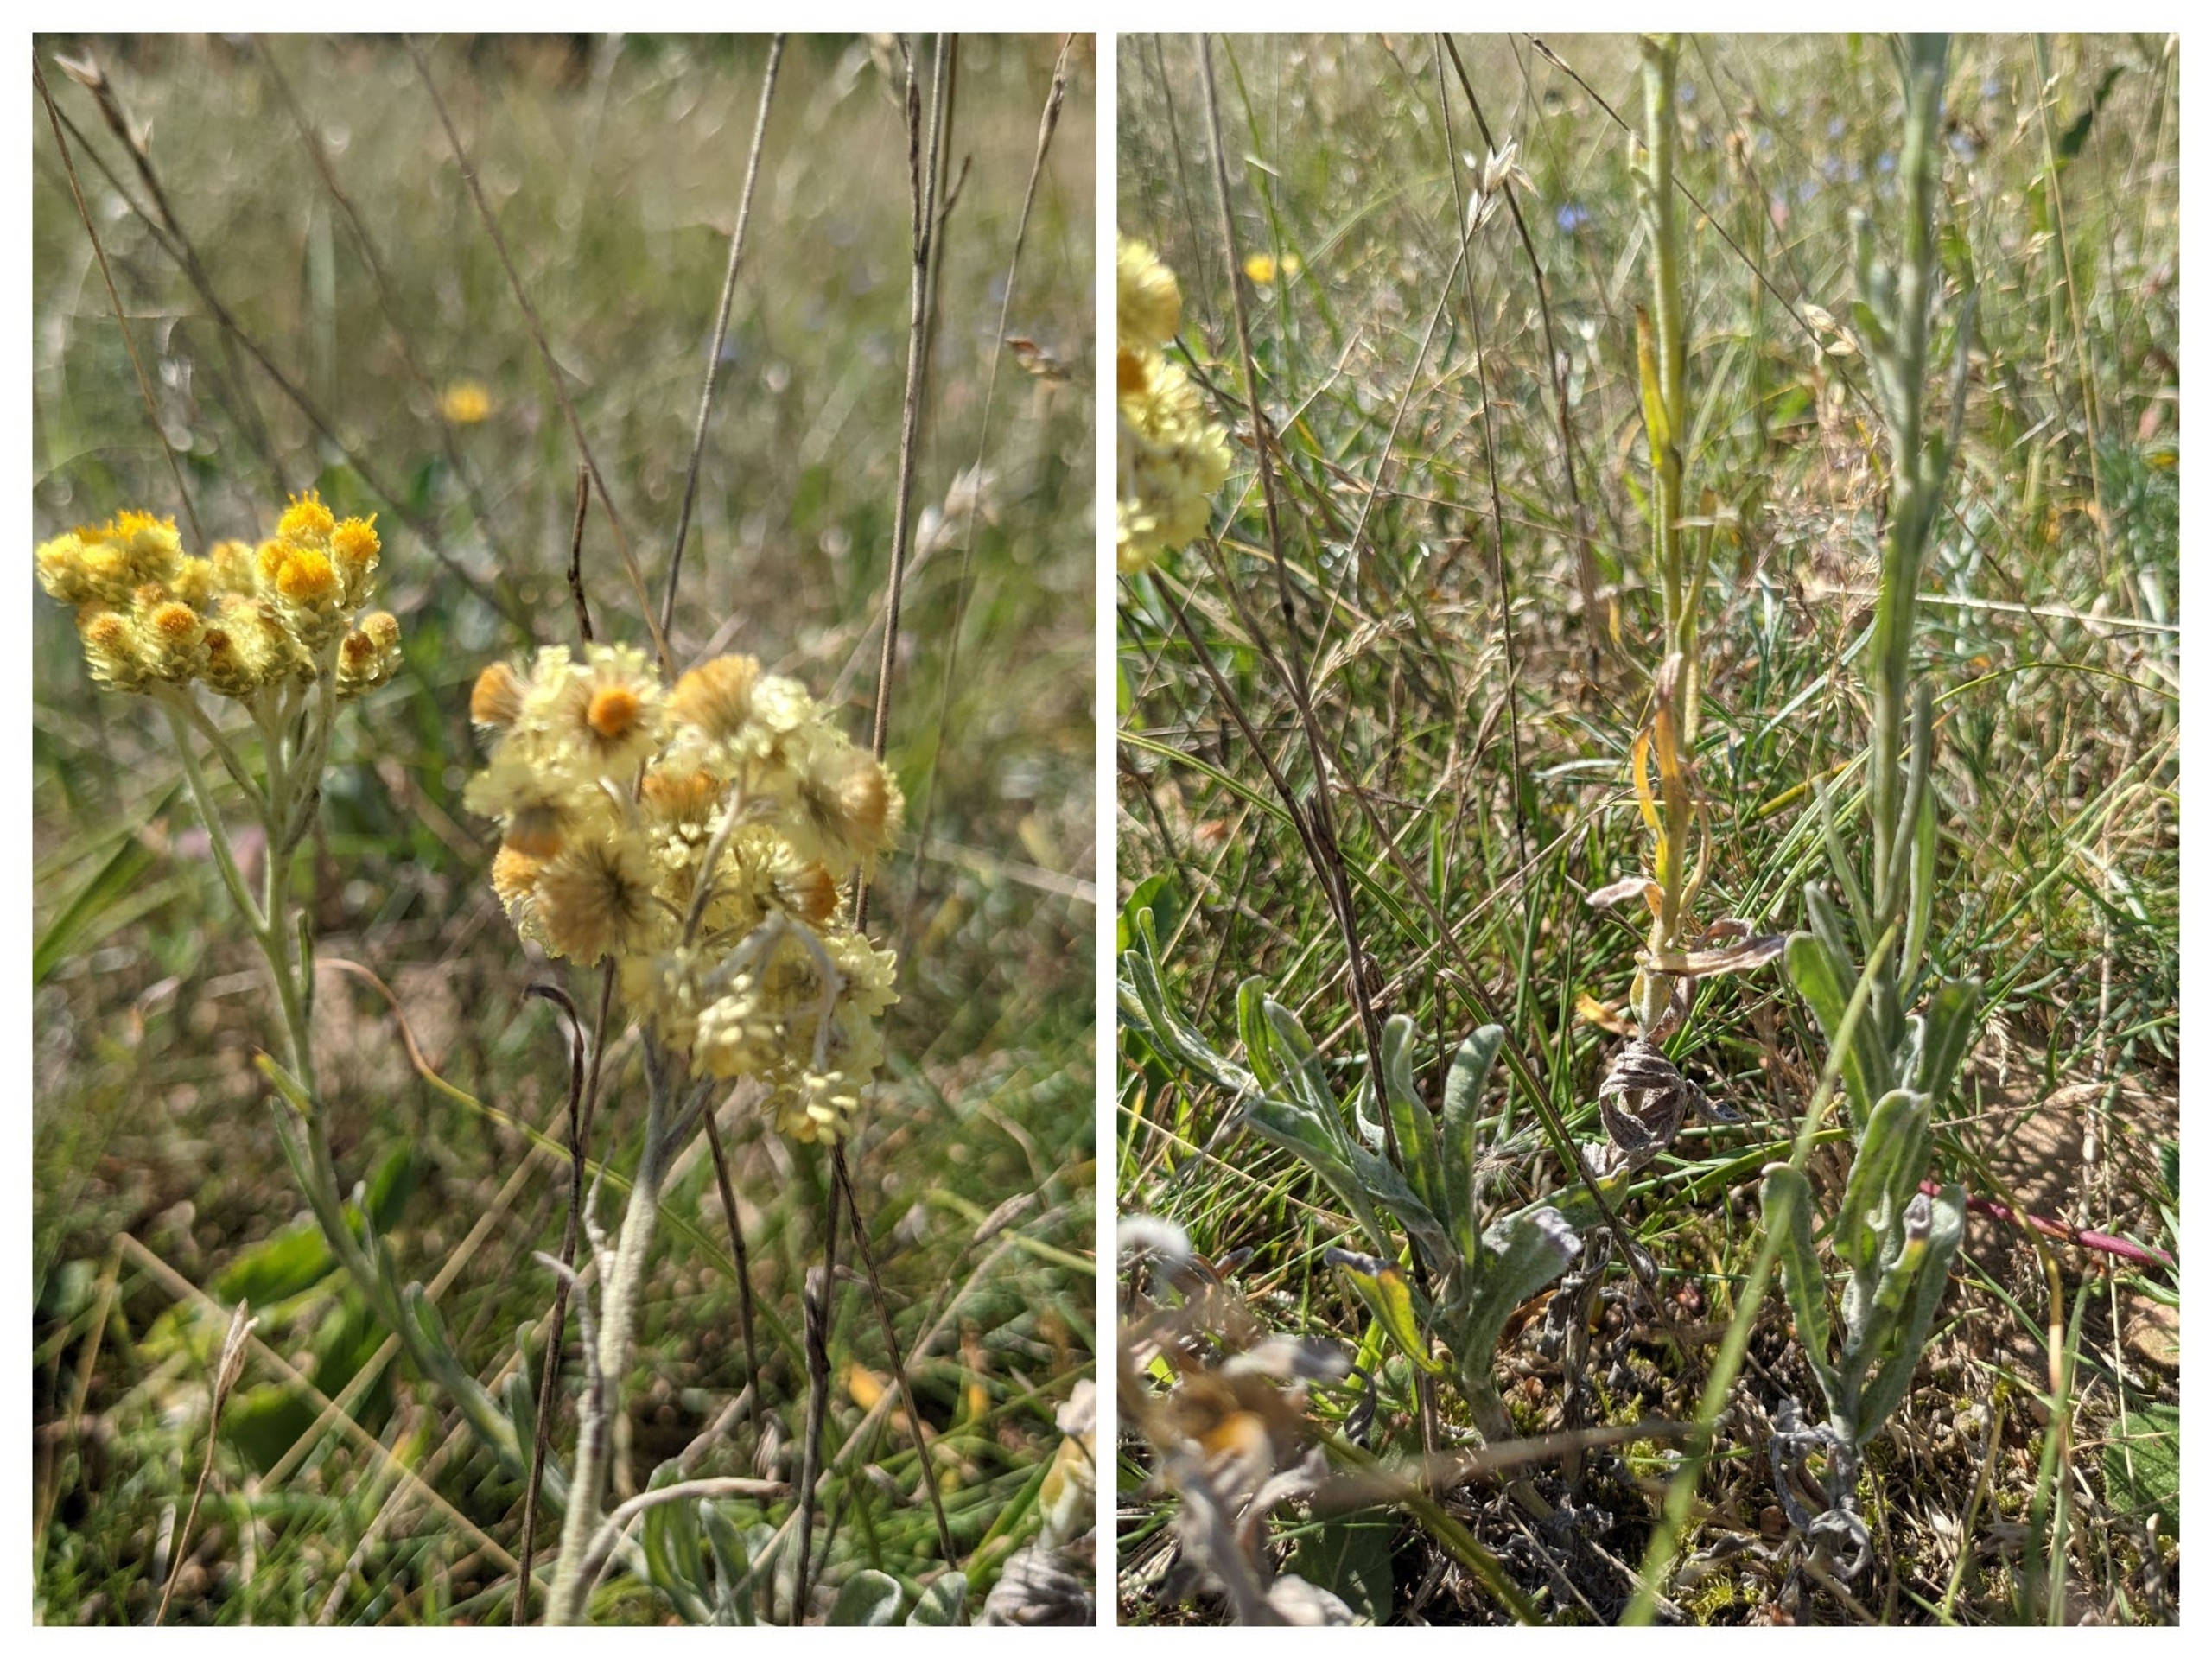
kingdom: Plantae
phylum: Tracheophyta
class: Magnoliopsida
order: Asterales
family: Asteraceae
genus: Helichrysum
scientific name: Helichrysum arenarium
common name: Gul evighedsblomst
